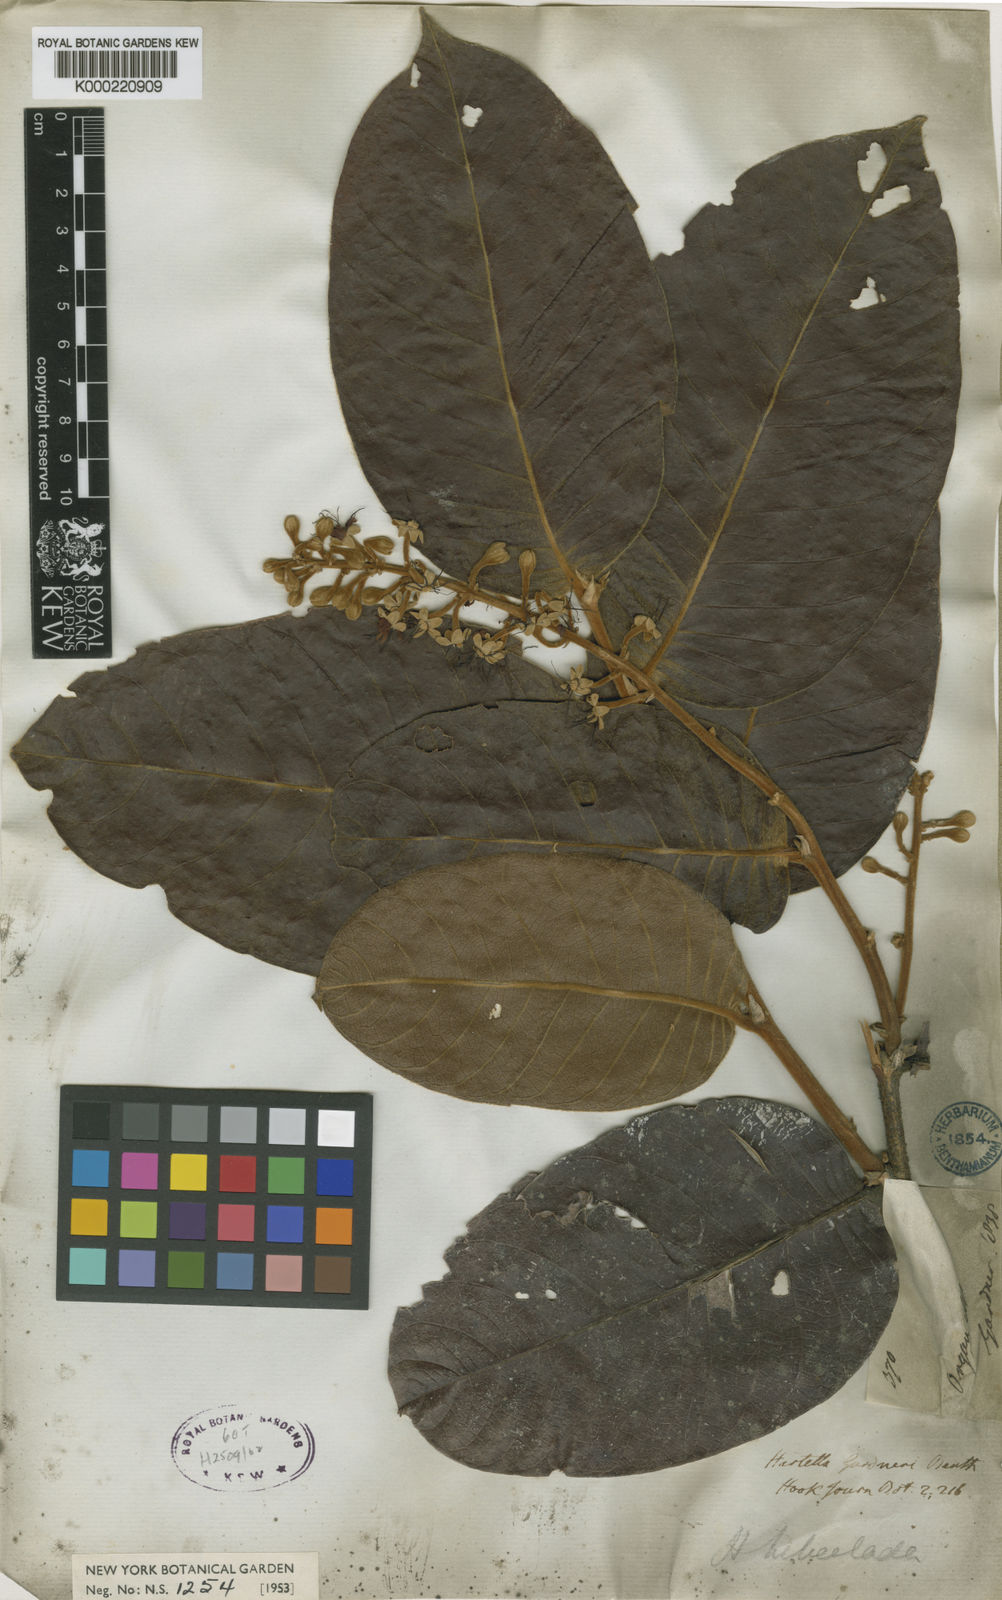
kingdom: Plantae
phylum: Tracheophyta
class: Magnoliopsida
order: Malpighiales
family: Chrysobalanaceae
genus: Hirtella
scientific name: Hirtella hebeclada
